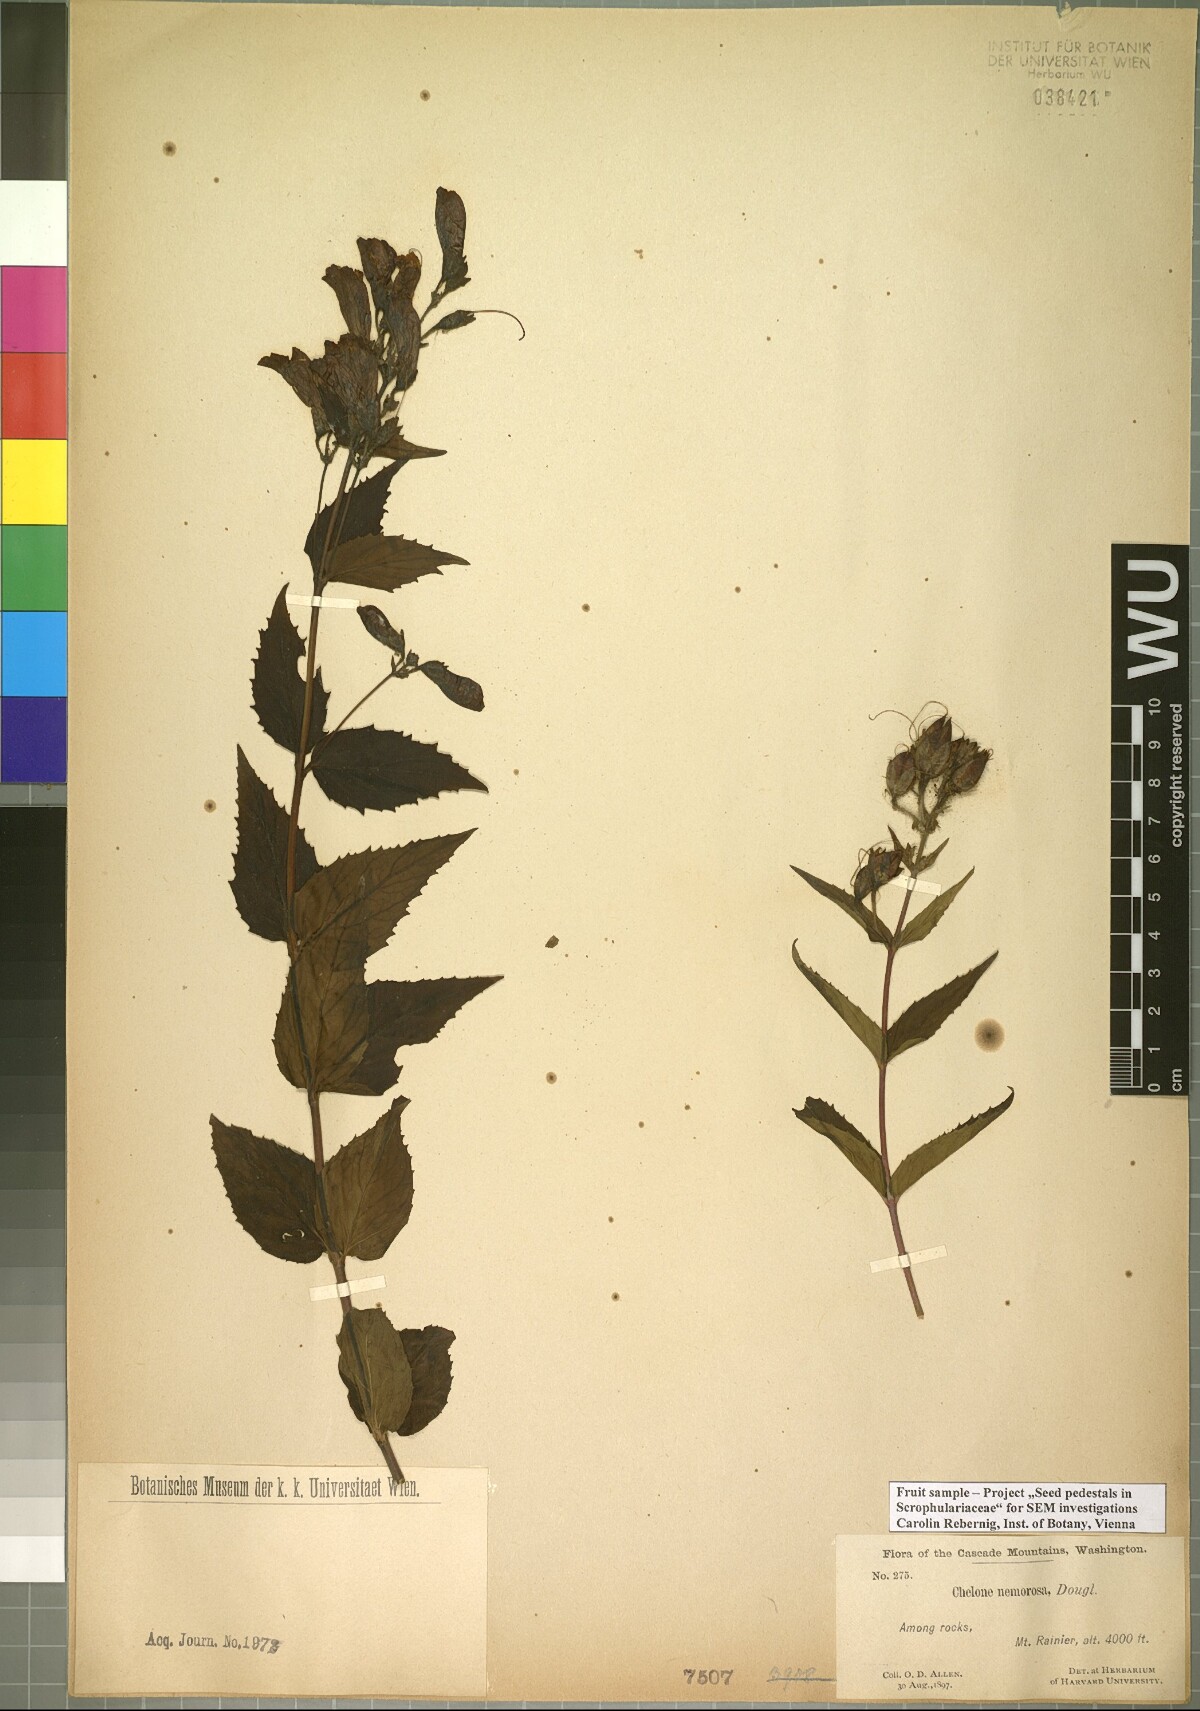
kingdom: Plantae
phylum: Tracheophyta
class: Magnoliopsida
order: Lamiales
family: Plantaginaceae
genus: Nothochelone
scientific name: Nothochelone nemorosa
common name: Woodland beardtongue
